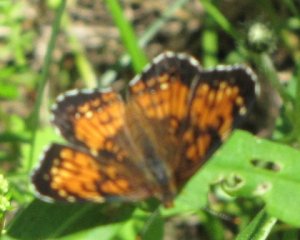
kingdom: Animalia
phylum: Arthropoda
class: Insecta
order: Lepidoptera
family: Nymphalidae
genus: Chlosyne
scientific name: Chlosyne harrisii
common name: Harris's Checkerspot
